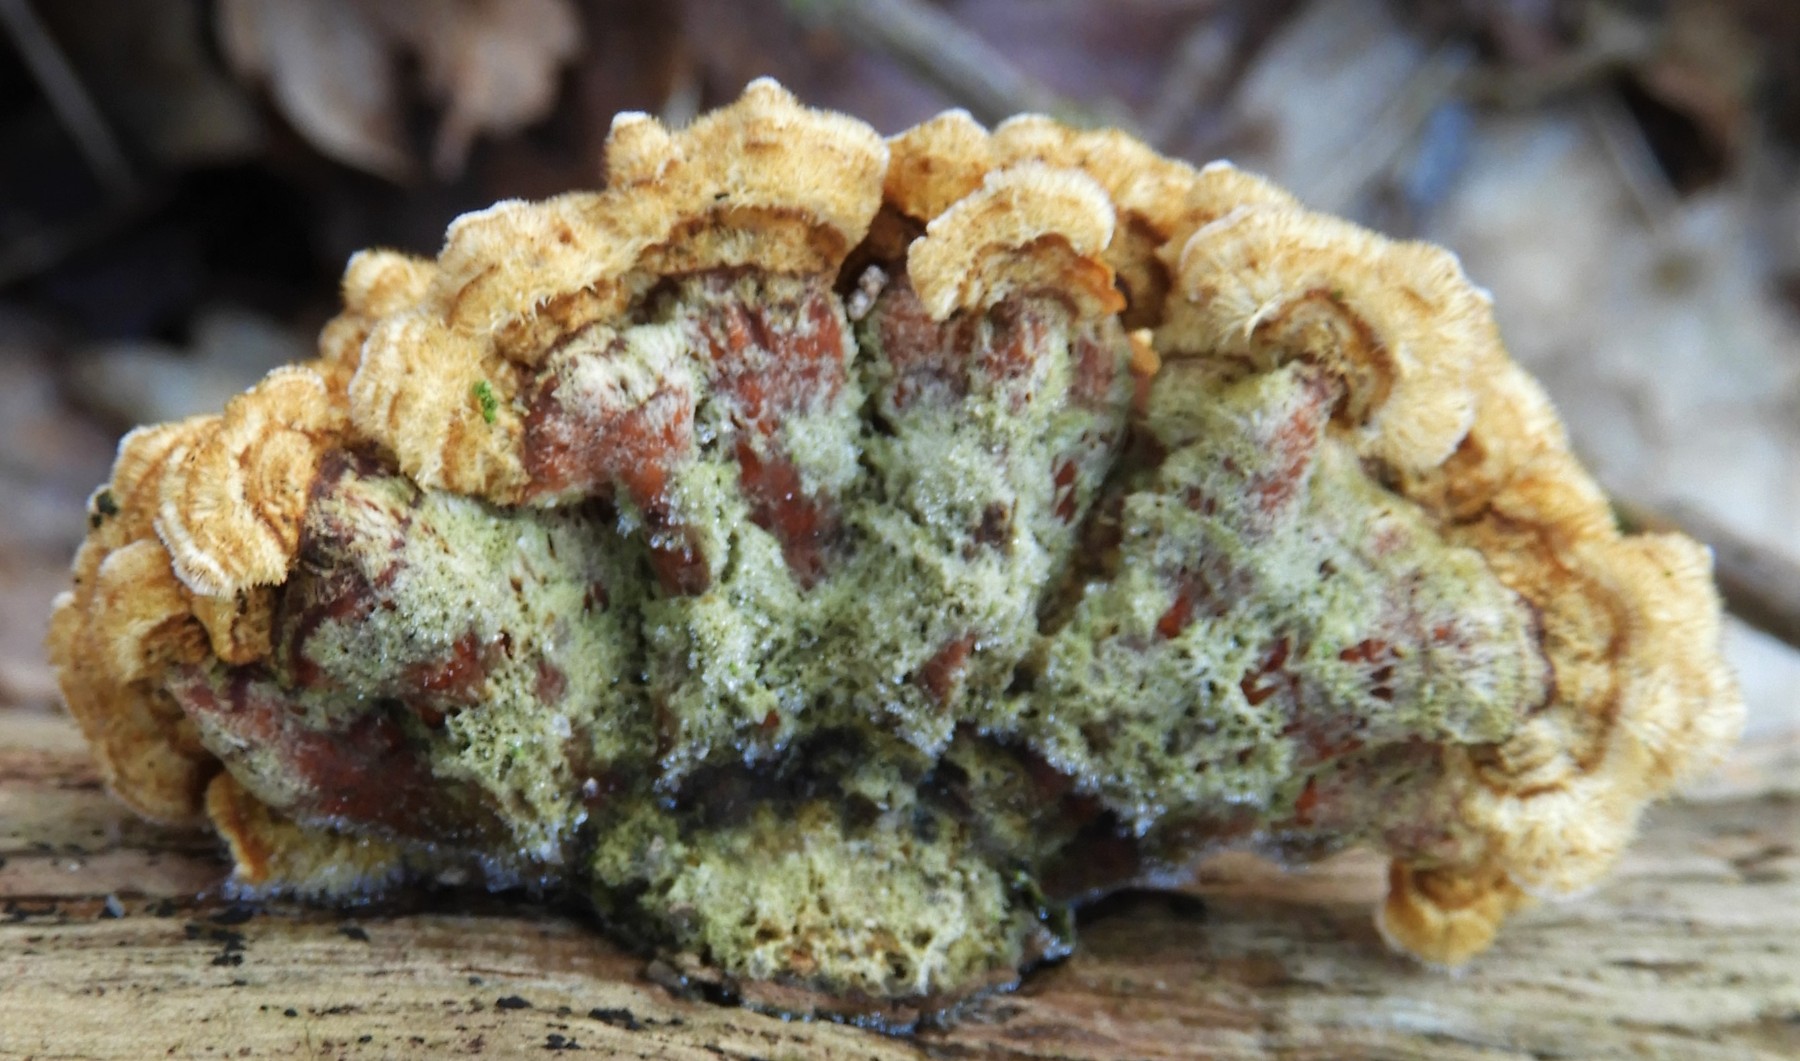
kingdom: Fungi
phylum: Basidiomycota
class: Agaricomycetes
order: Russulales
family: Stereaceae
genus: Stereum
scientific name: Stereum subtomentosum
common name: smuk lædersvamp
